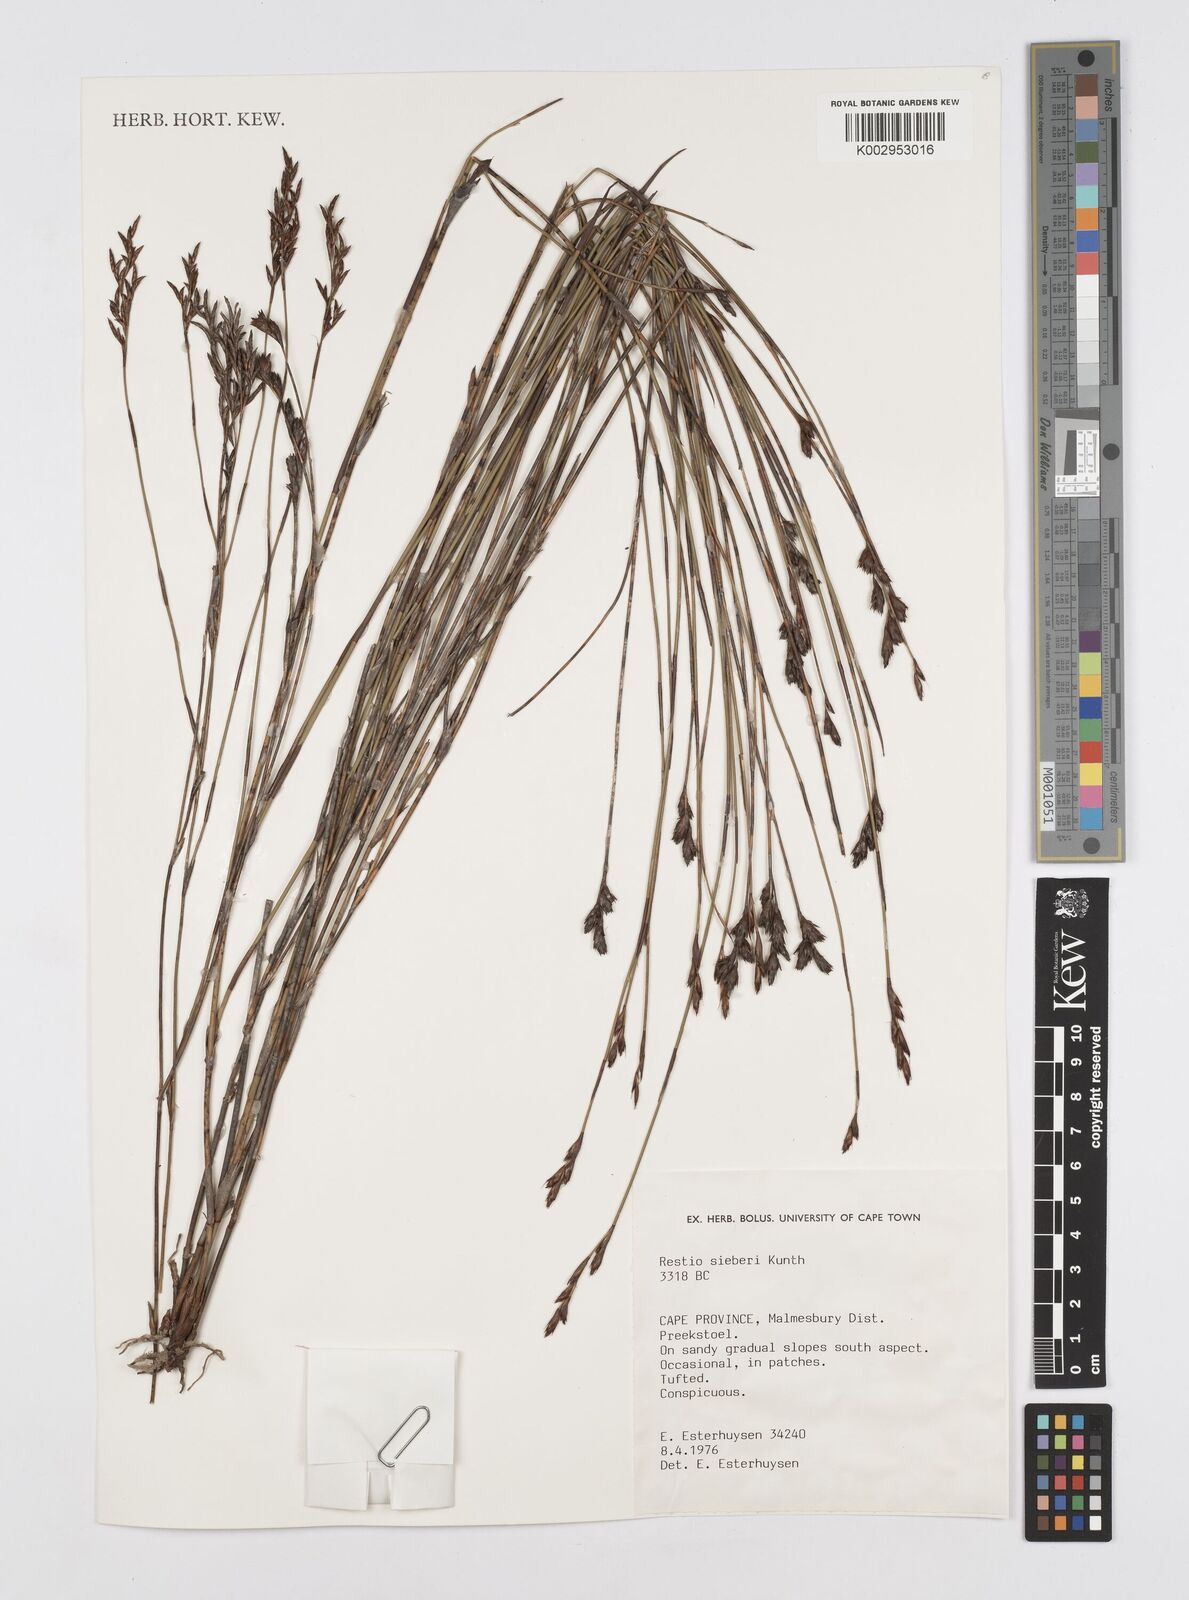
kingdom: Plantae
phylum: Tracheophyta
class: Liliopsida
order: Poales
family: Restionaceae
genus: Restio
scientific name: Restio sieberi
